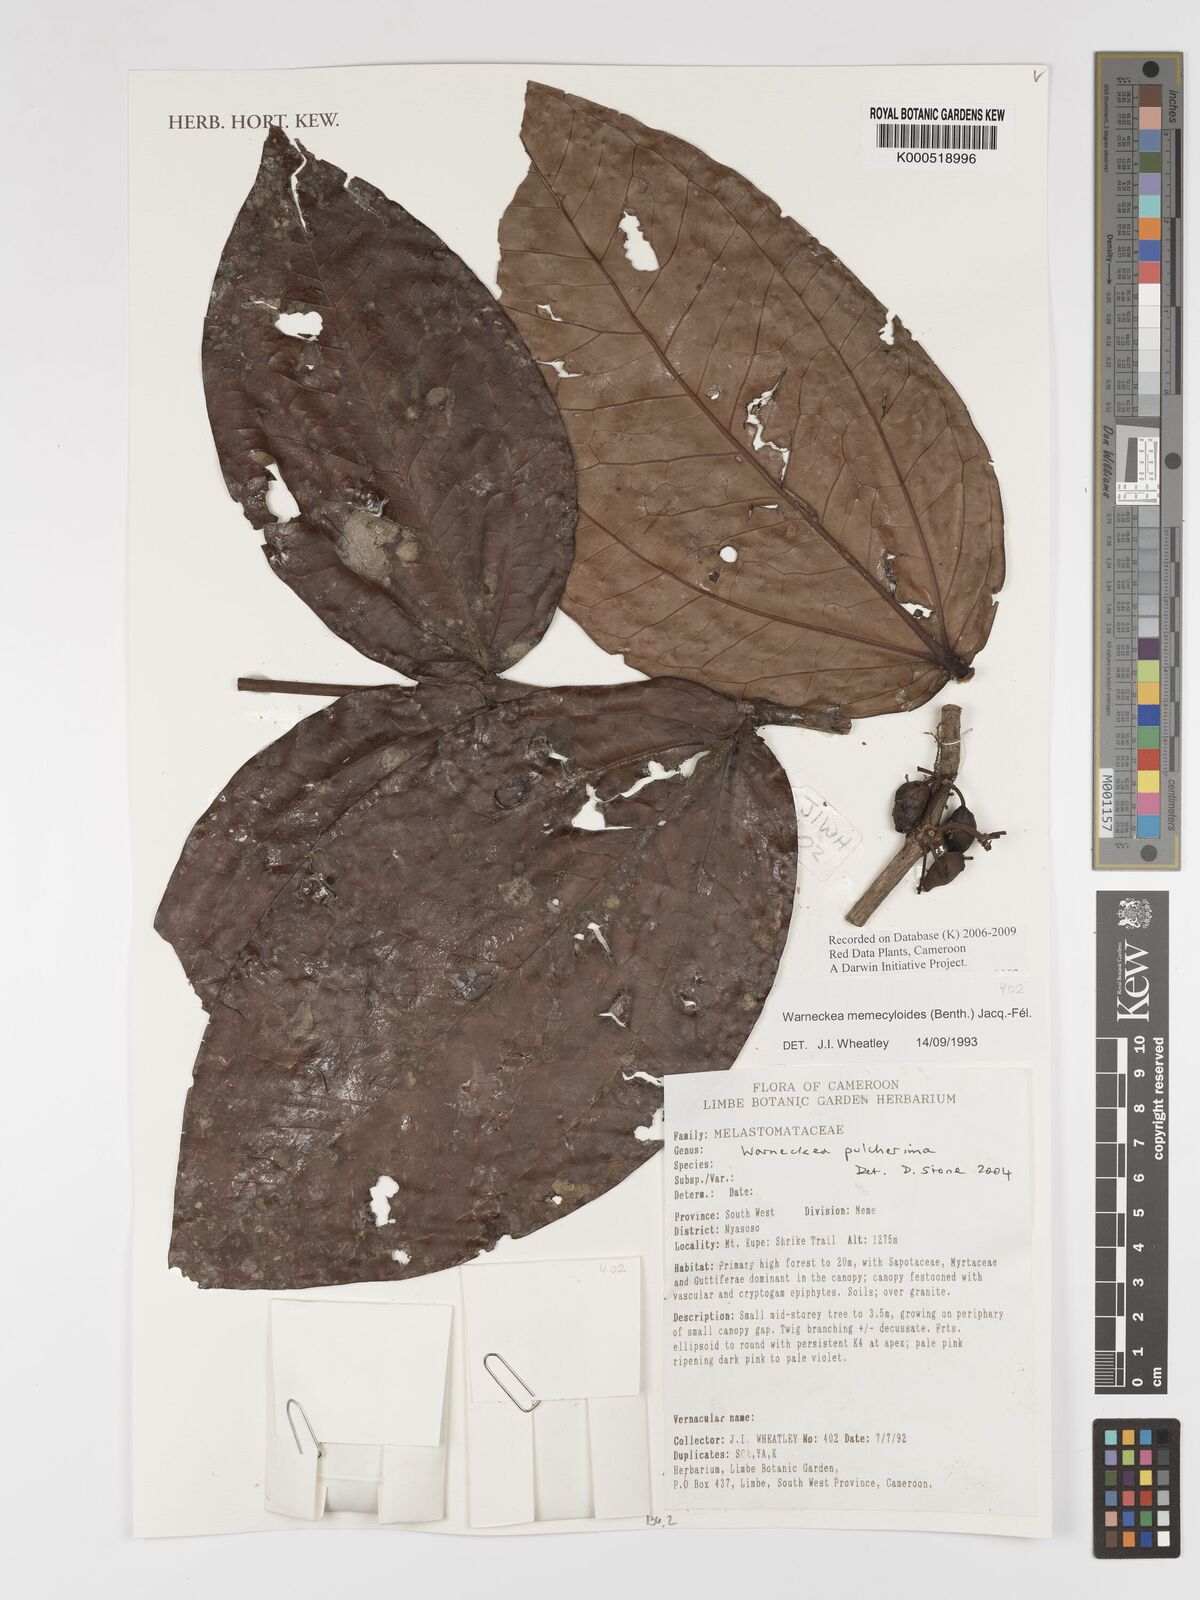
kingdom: Plantae
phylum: Tracheophyta
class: Magnoliopsida
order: Myrtales
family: Melastomataceae
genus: Warneckea
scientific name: Warneckea
